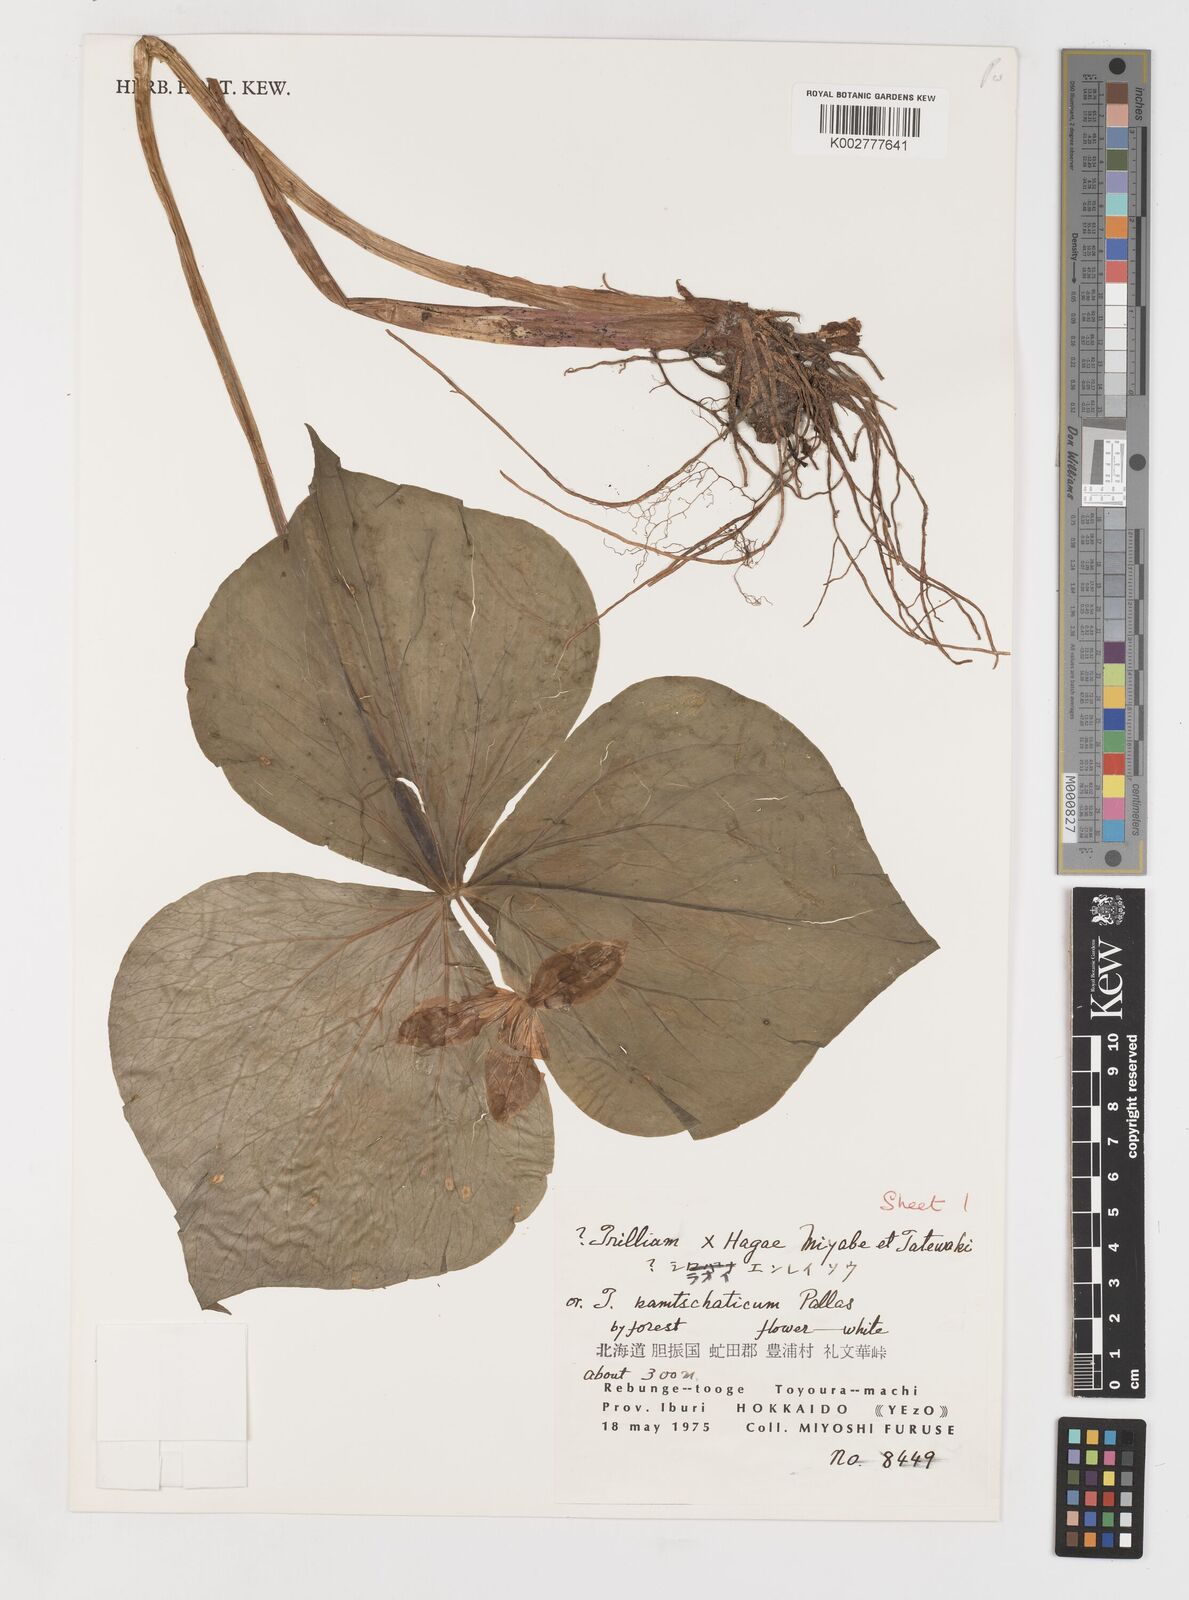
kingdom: Plantae
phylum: Tracheophyta
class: Liliopsida
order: Liliales
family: Melanthiaceae
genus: Trillium
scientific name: Trillium hagae
